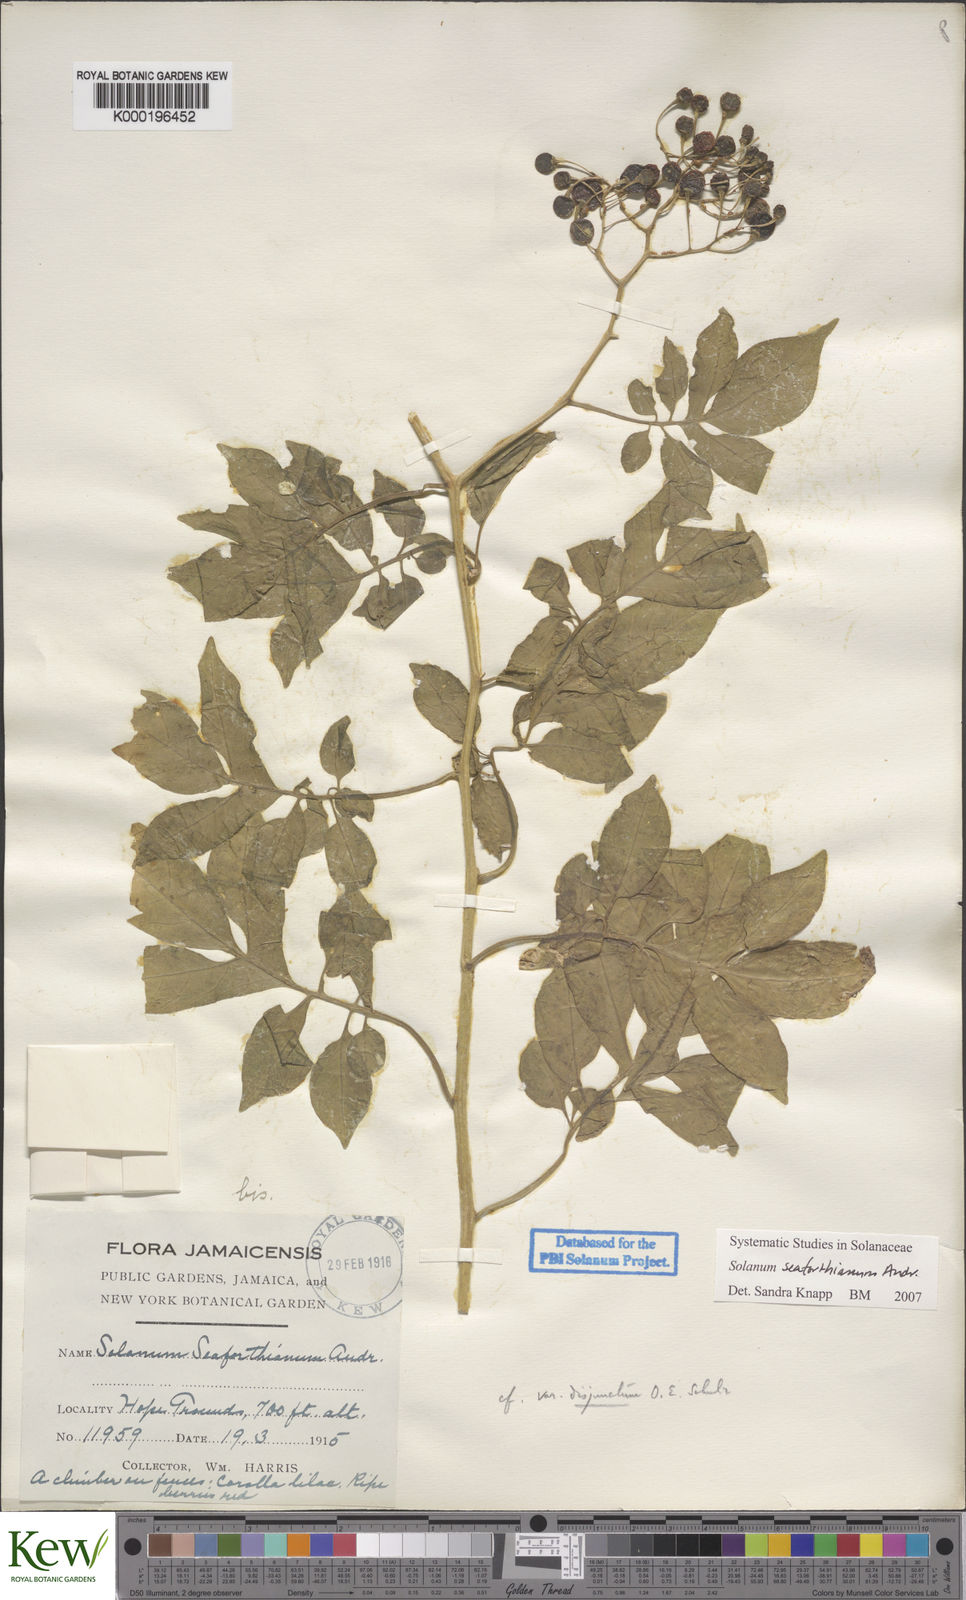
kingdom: Plantae
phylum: Tracheophyta
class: Magnoliopsida
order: Solanales
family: Solanaceae
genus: Solanum
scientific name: Solanum seaforthianum
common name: Brazilian nightshade
